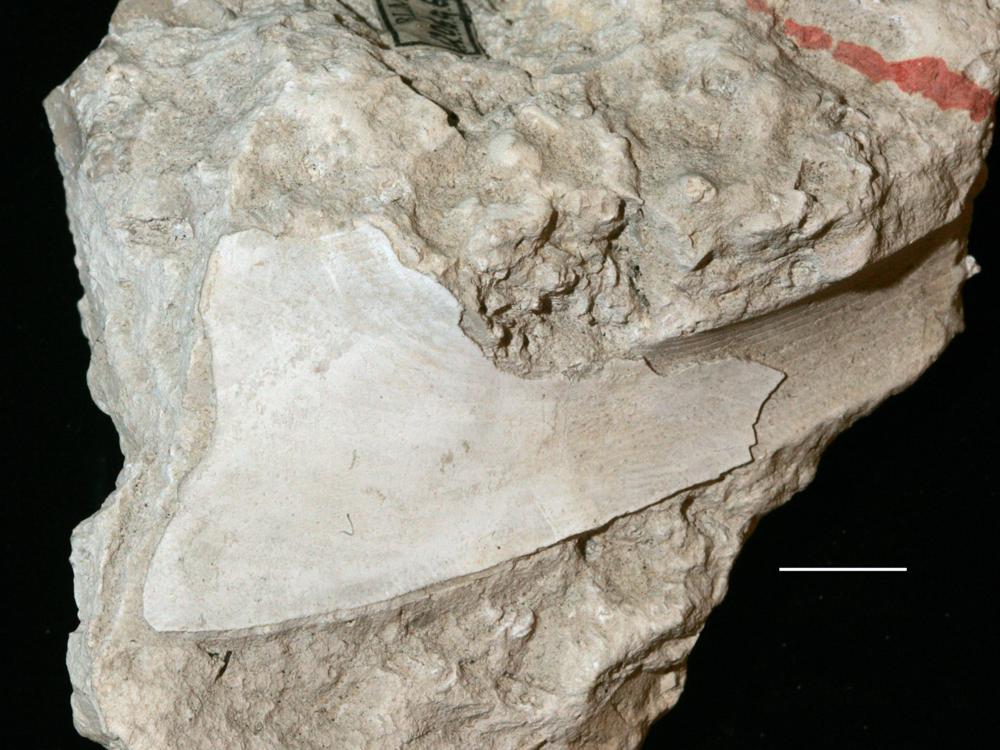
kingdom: Animalia
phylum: Arthropoda
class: Trilobita
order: Asaphida
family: Asaphidae
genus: Isotelus
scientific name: Isotelus platyrhachis
